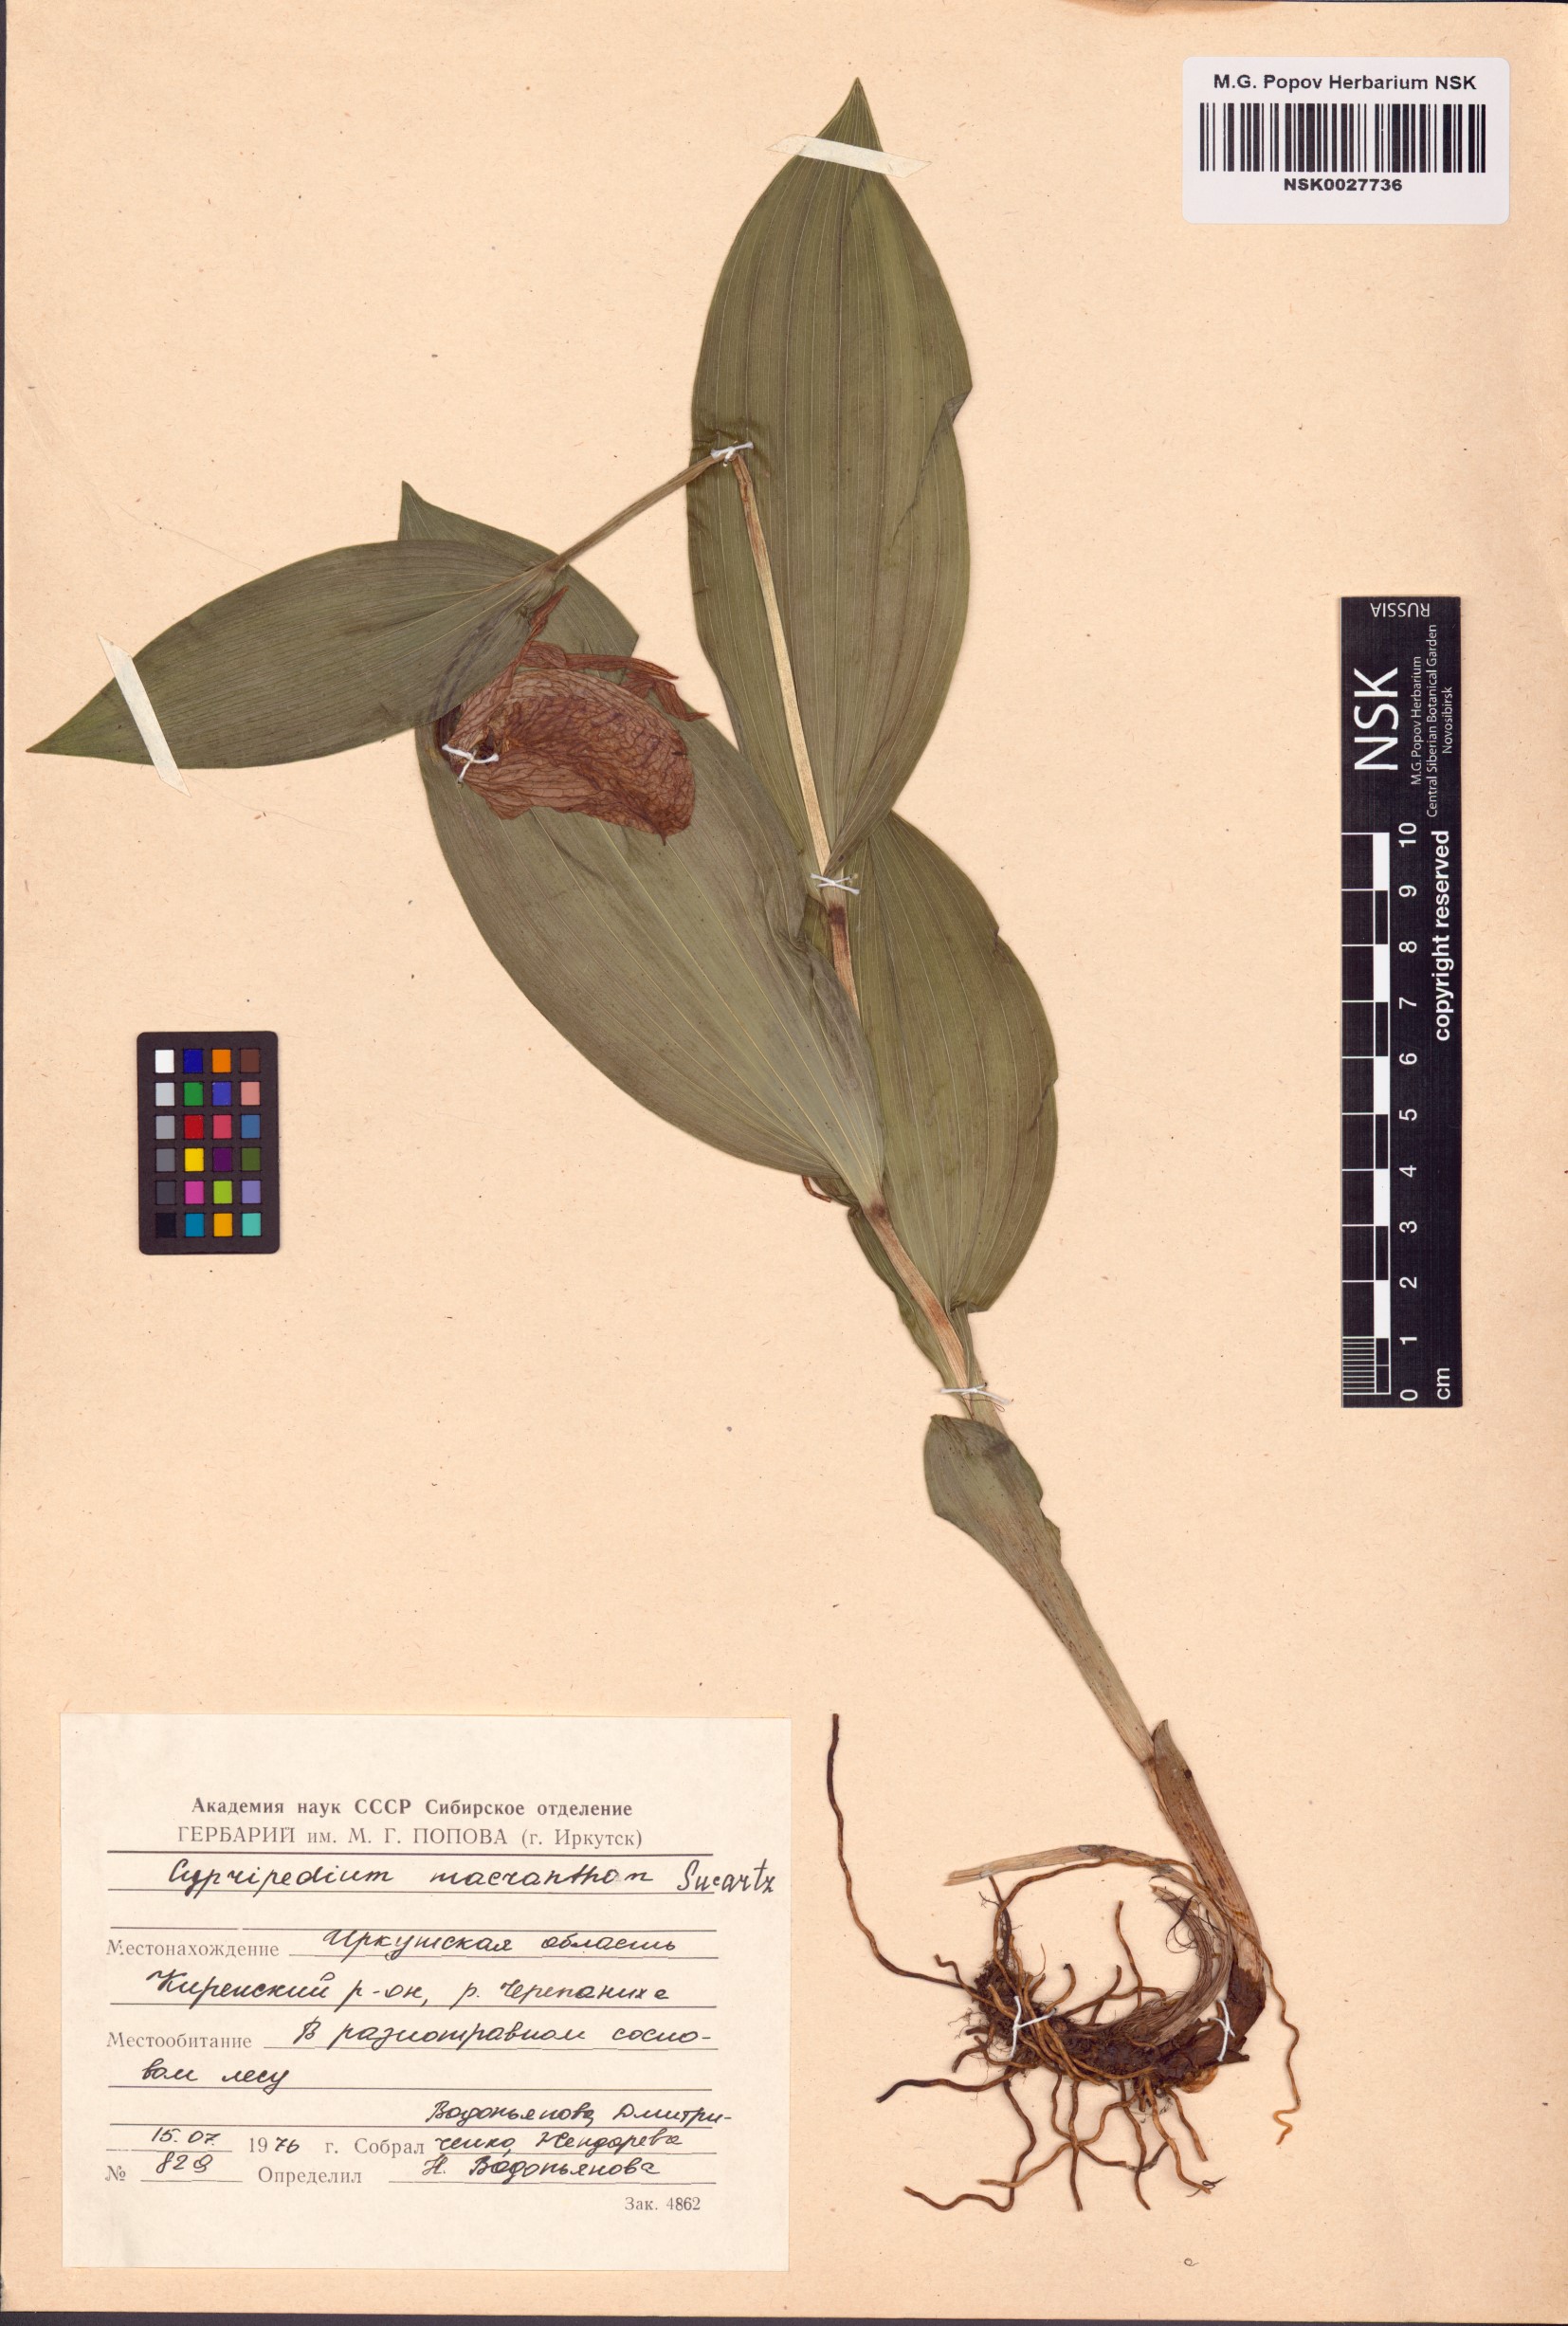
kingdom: Plantae
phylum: Tracheophyta
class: Liliopsida
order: Asparagales
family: Orchidaceae
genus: Cypripedium
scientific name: Cypripedium macranthos
